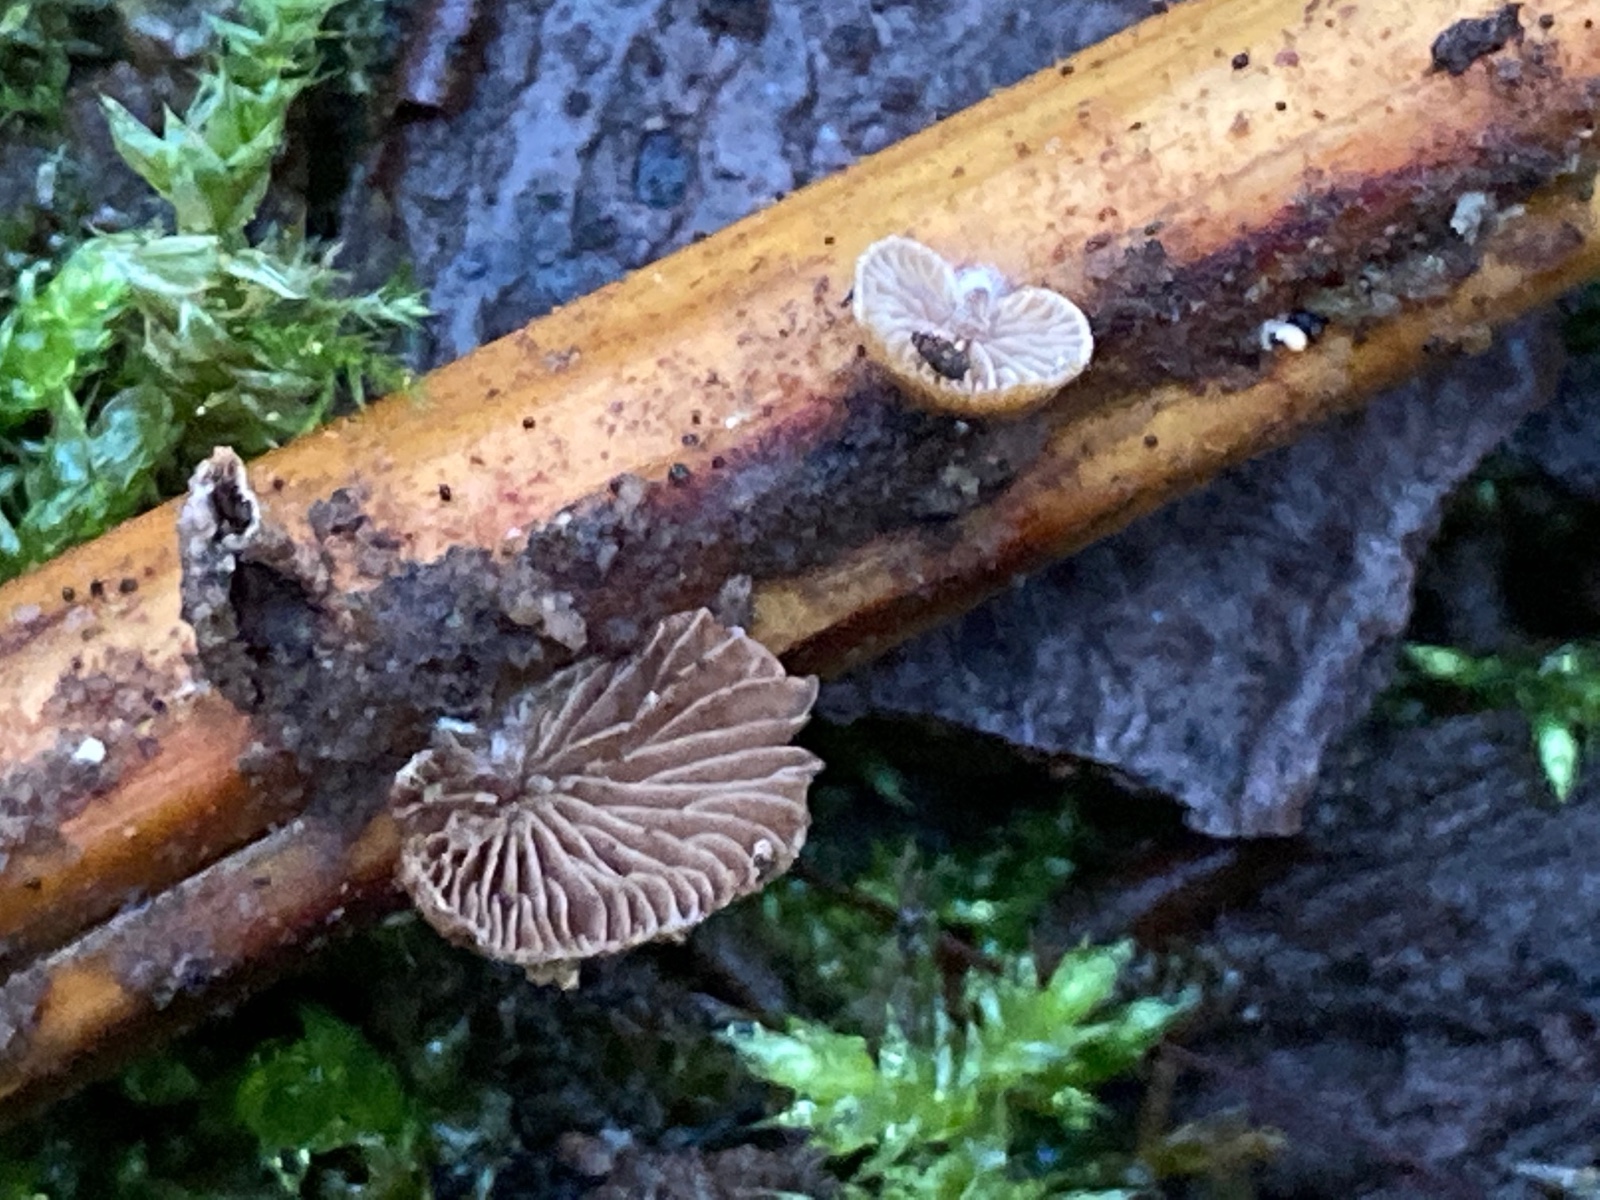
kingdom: Fungi
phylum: Basidiomycota
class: Agaricomycetes
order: Agaricales
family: Strophariaceae
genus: Deconica
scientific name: Deconica horizontalis
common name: ved-stråhat
